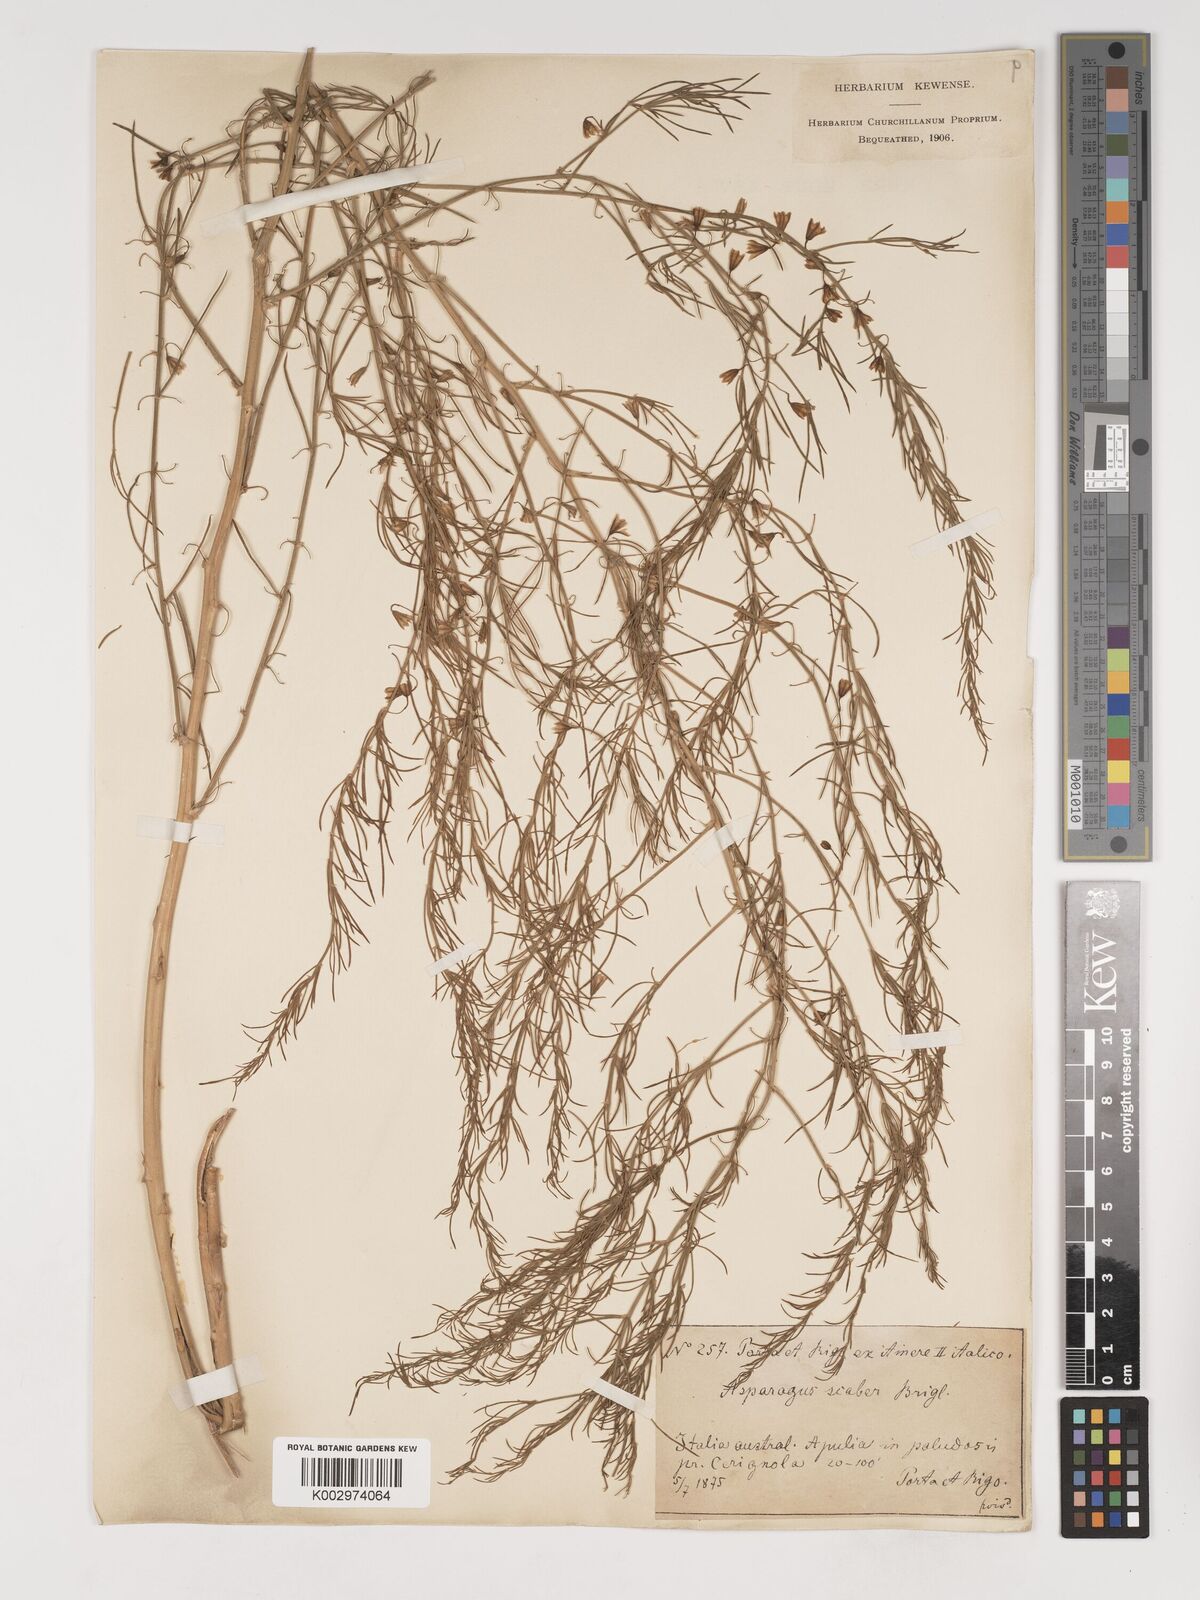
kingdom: Plantae
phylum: Tracheophyta
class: Liliopsida
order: Asparagales
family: Asparagaceae
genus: Asparagus
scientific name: Asparagus officinalis
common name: Garden asparagus
